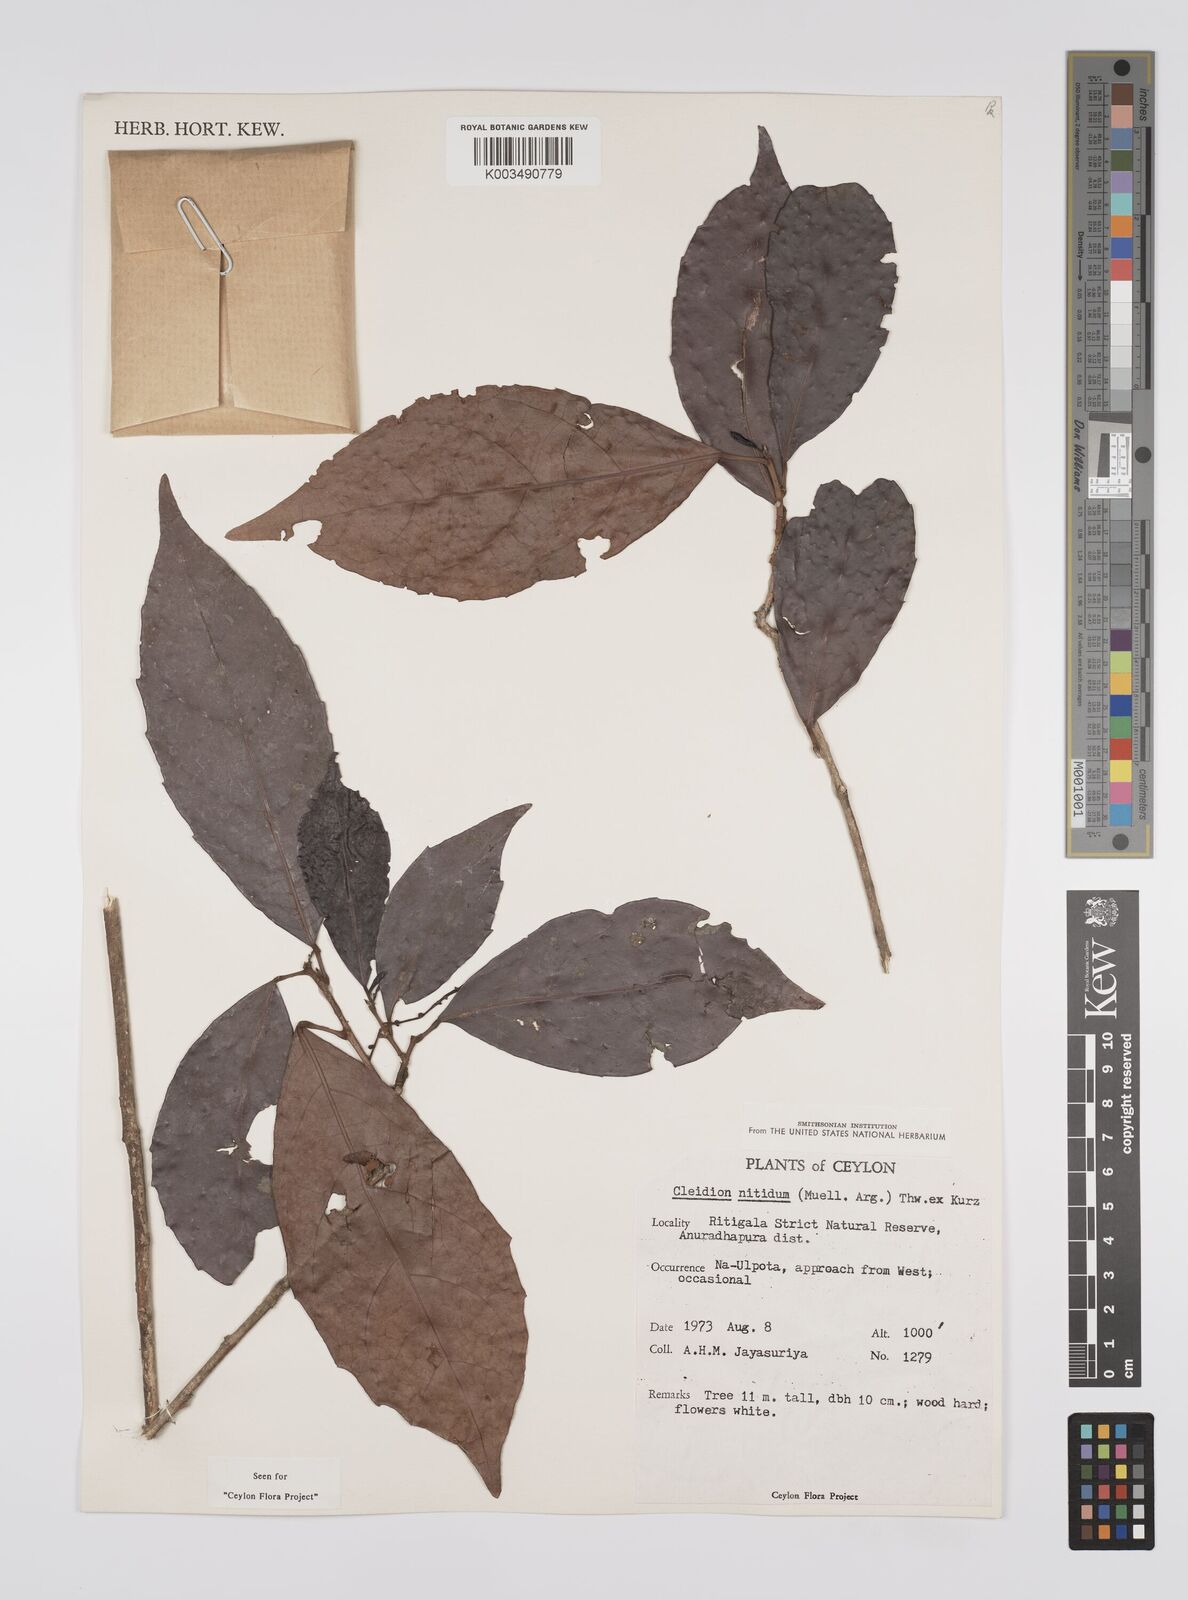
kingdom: Plantae
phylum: Tracheophyta
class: Magnoliopsida
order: Malpighiales
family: Euphorbiaceae
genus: Cleidion
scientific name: Cleidion nitidum
